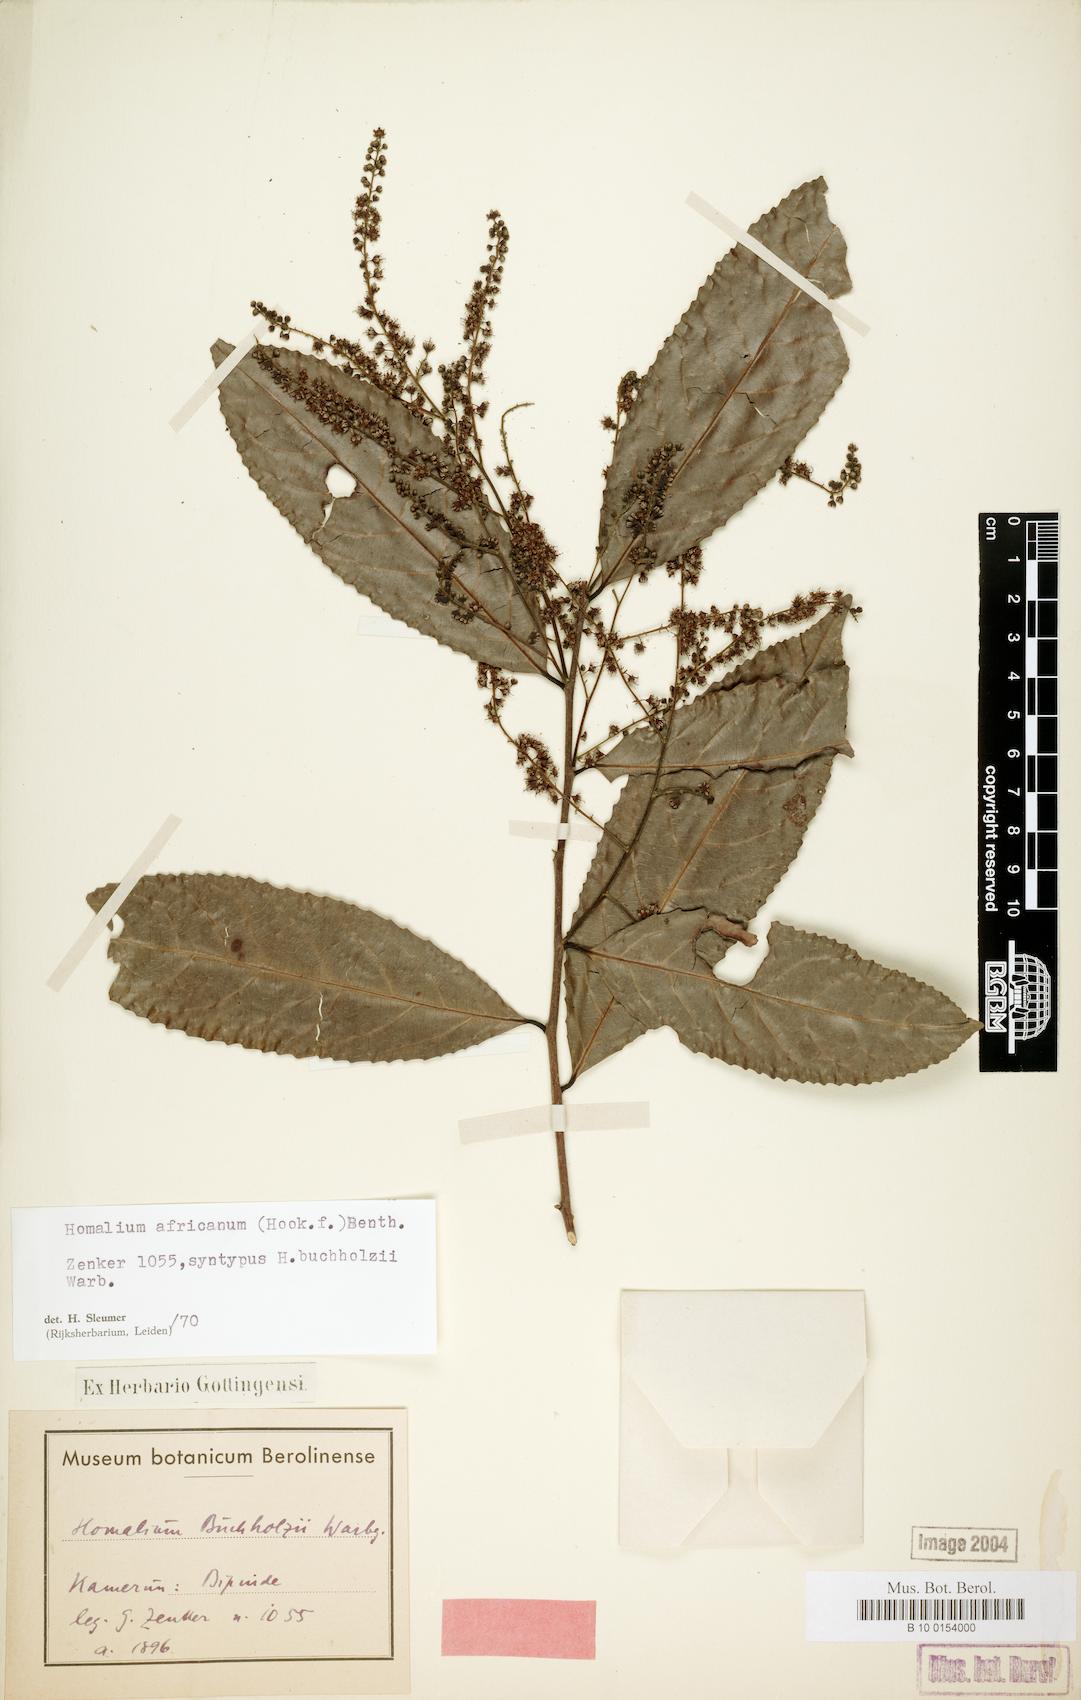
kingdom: Plantae
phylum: Tracheophyta
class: Magnoliopsida
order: Malpighiales
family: Salicaceae
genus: Homalium
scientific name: Homalium africanum
